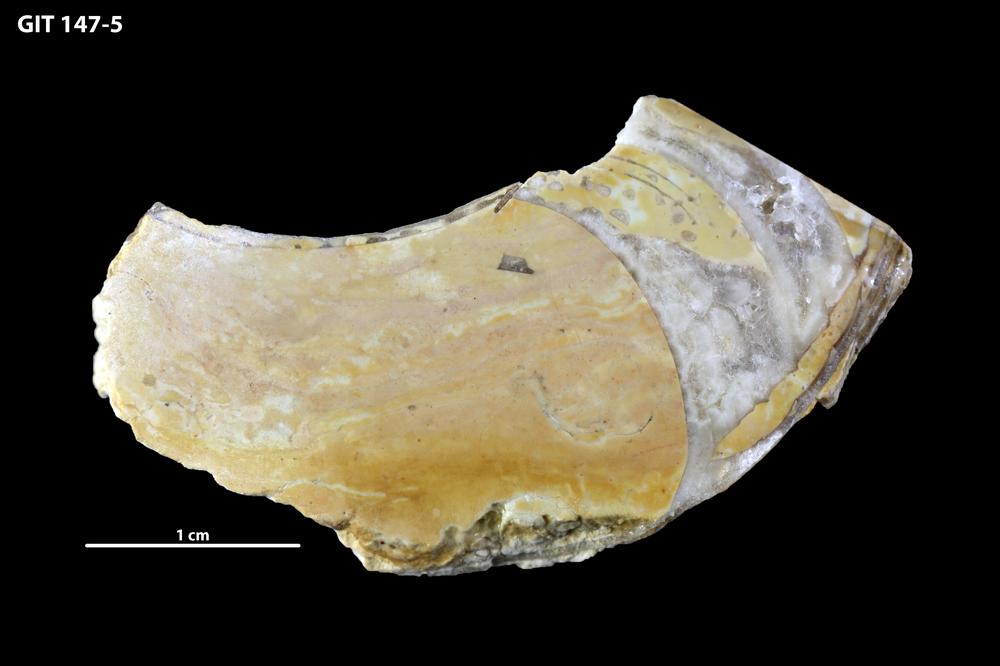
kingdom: Animalia
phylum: Mollusca
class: Cephalopoda
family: Barrandeoceratidae
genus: Vasalemmoceras
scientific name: Vasalemmoceras tolerabile
